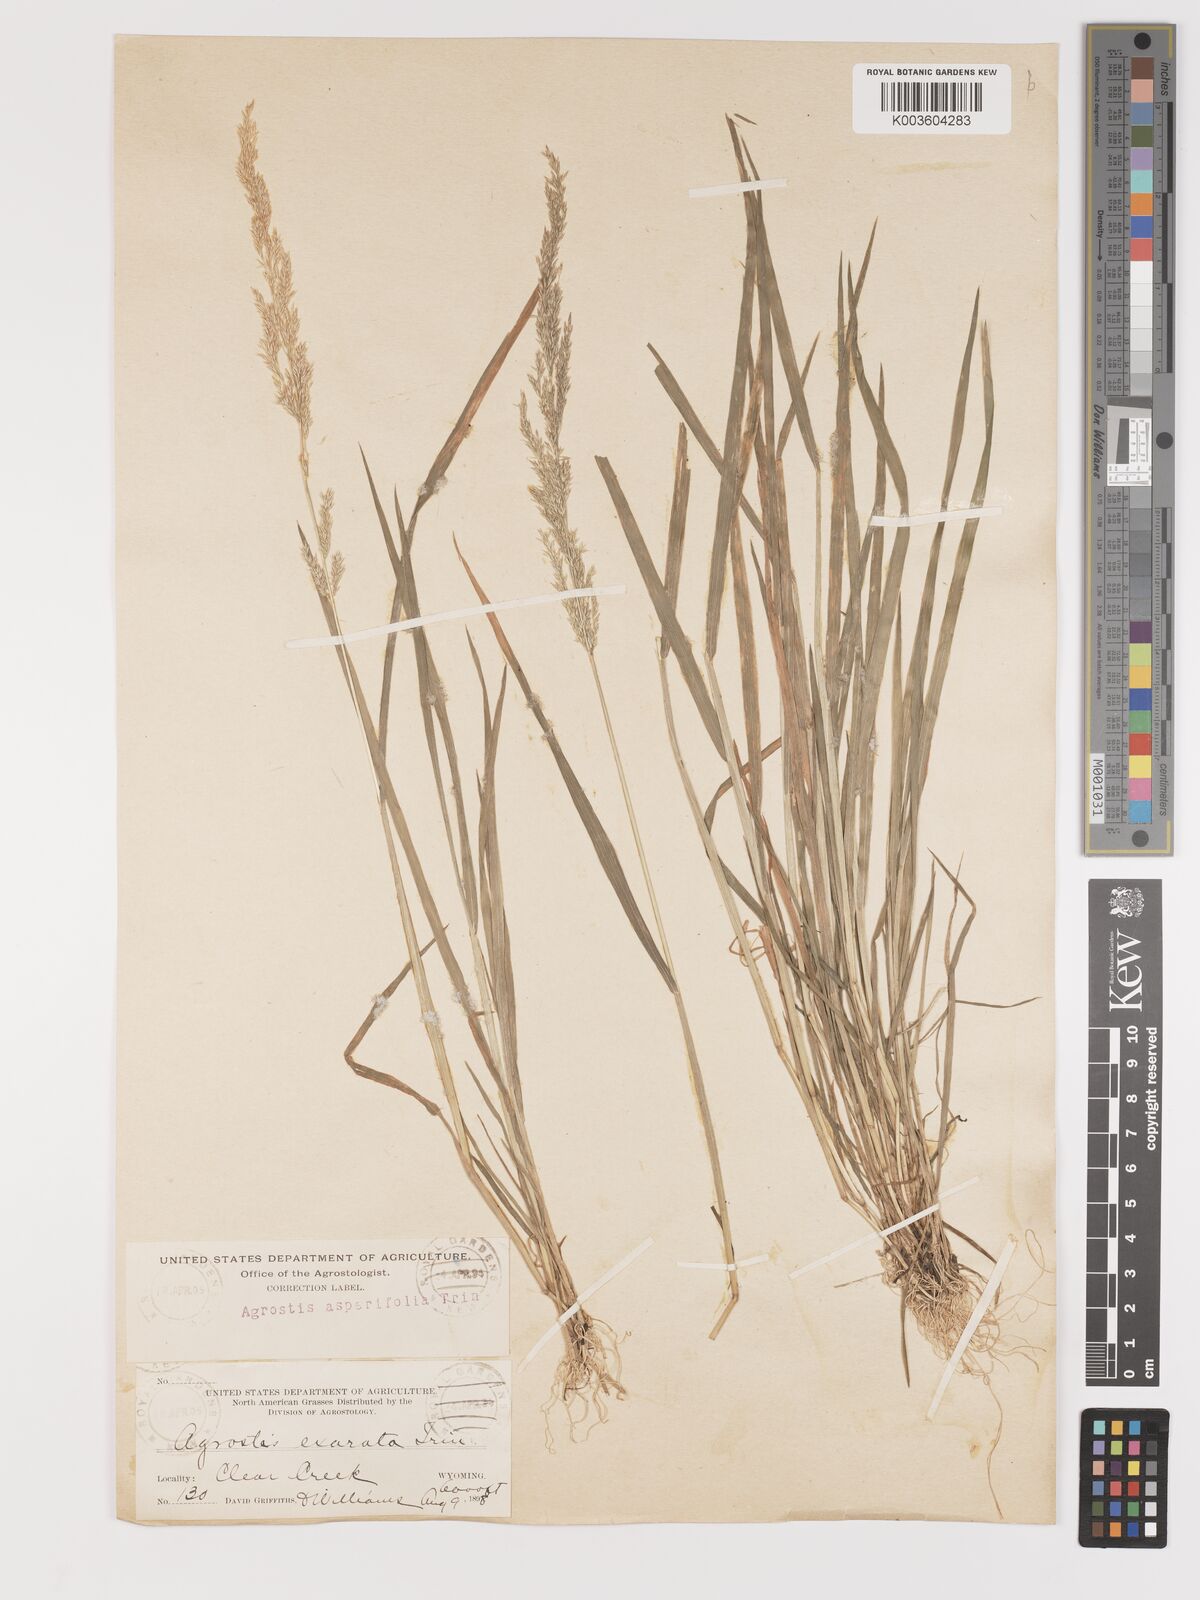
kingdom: Plantae
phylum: Tracheophyta
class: Liliopsida
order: Poales
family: Poaceae
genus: Agrostis
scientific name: Agrostis exarata
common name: Spike bent
